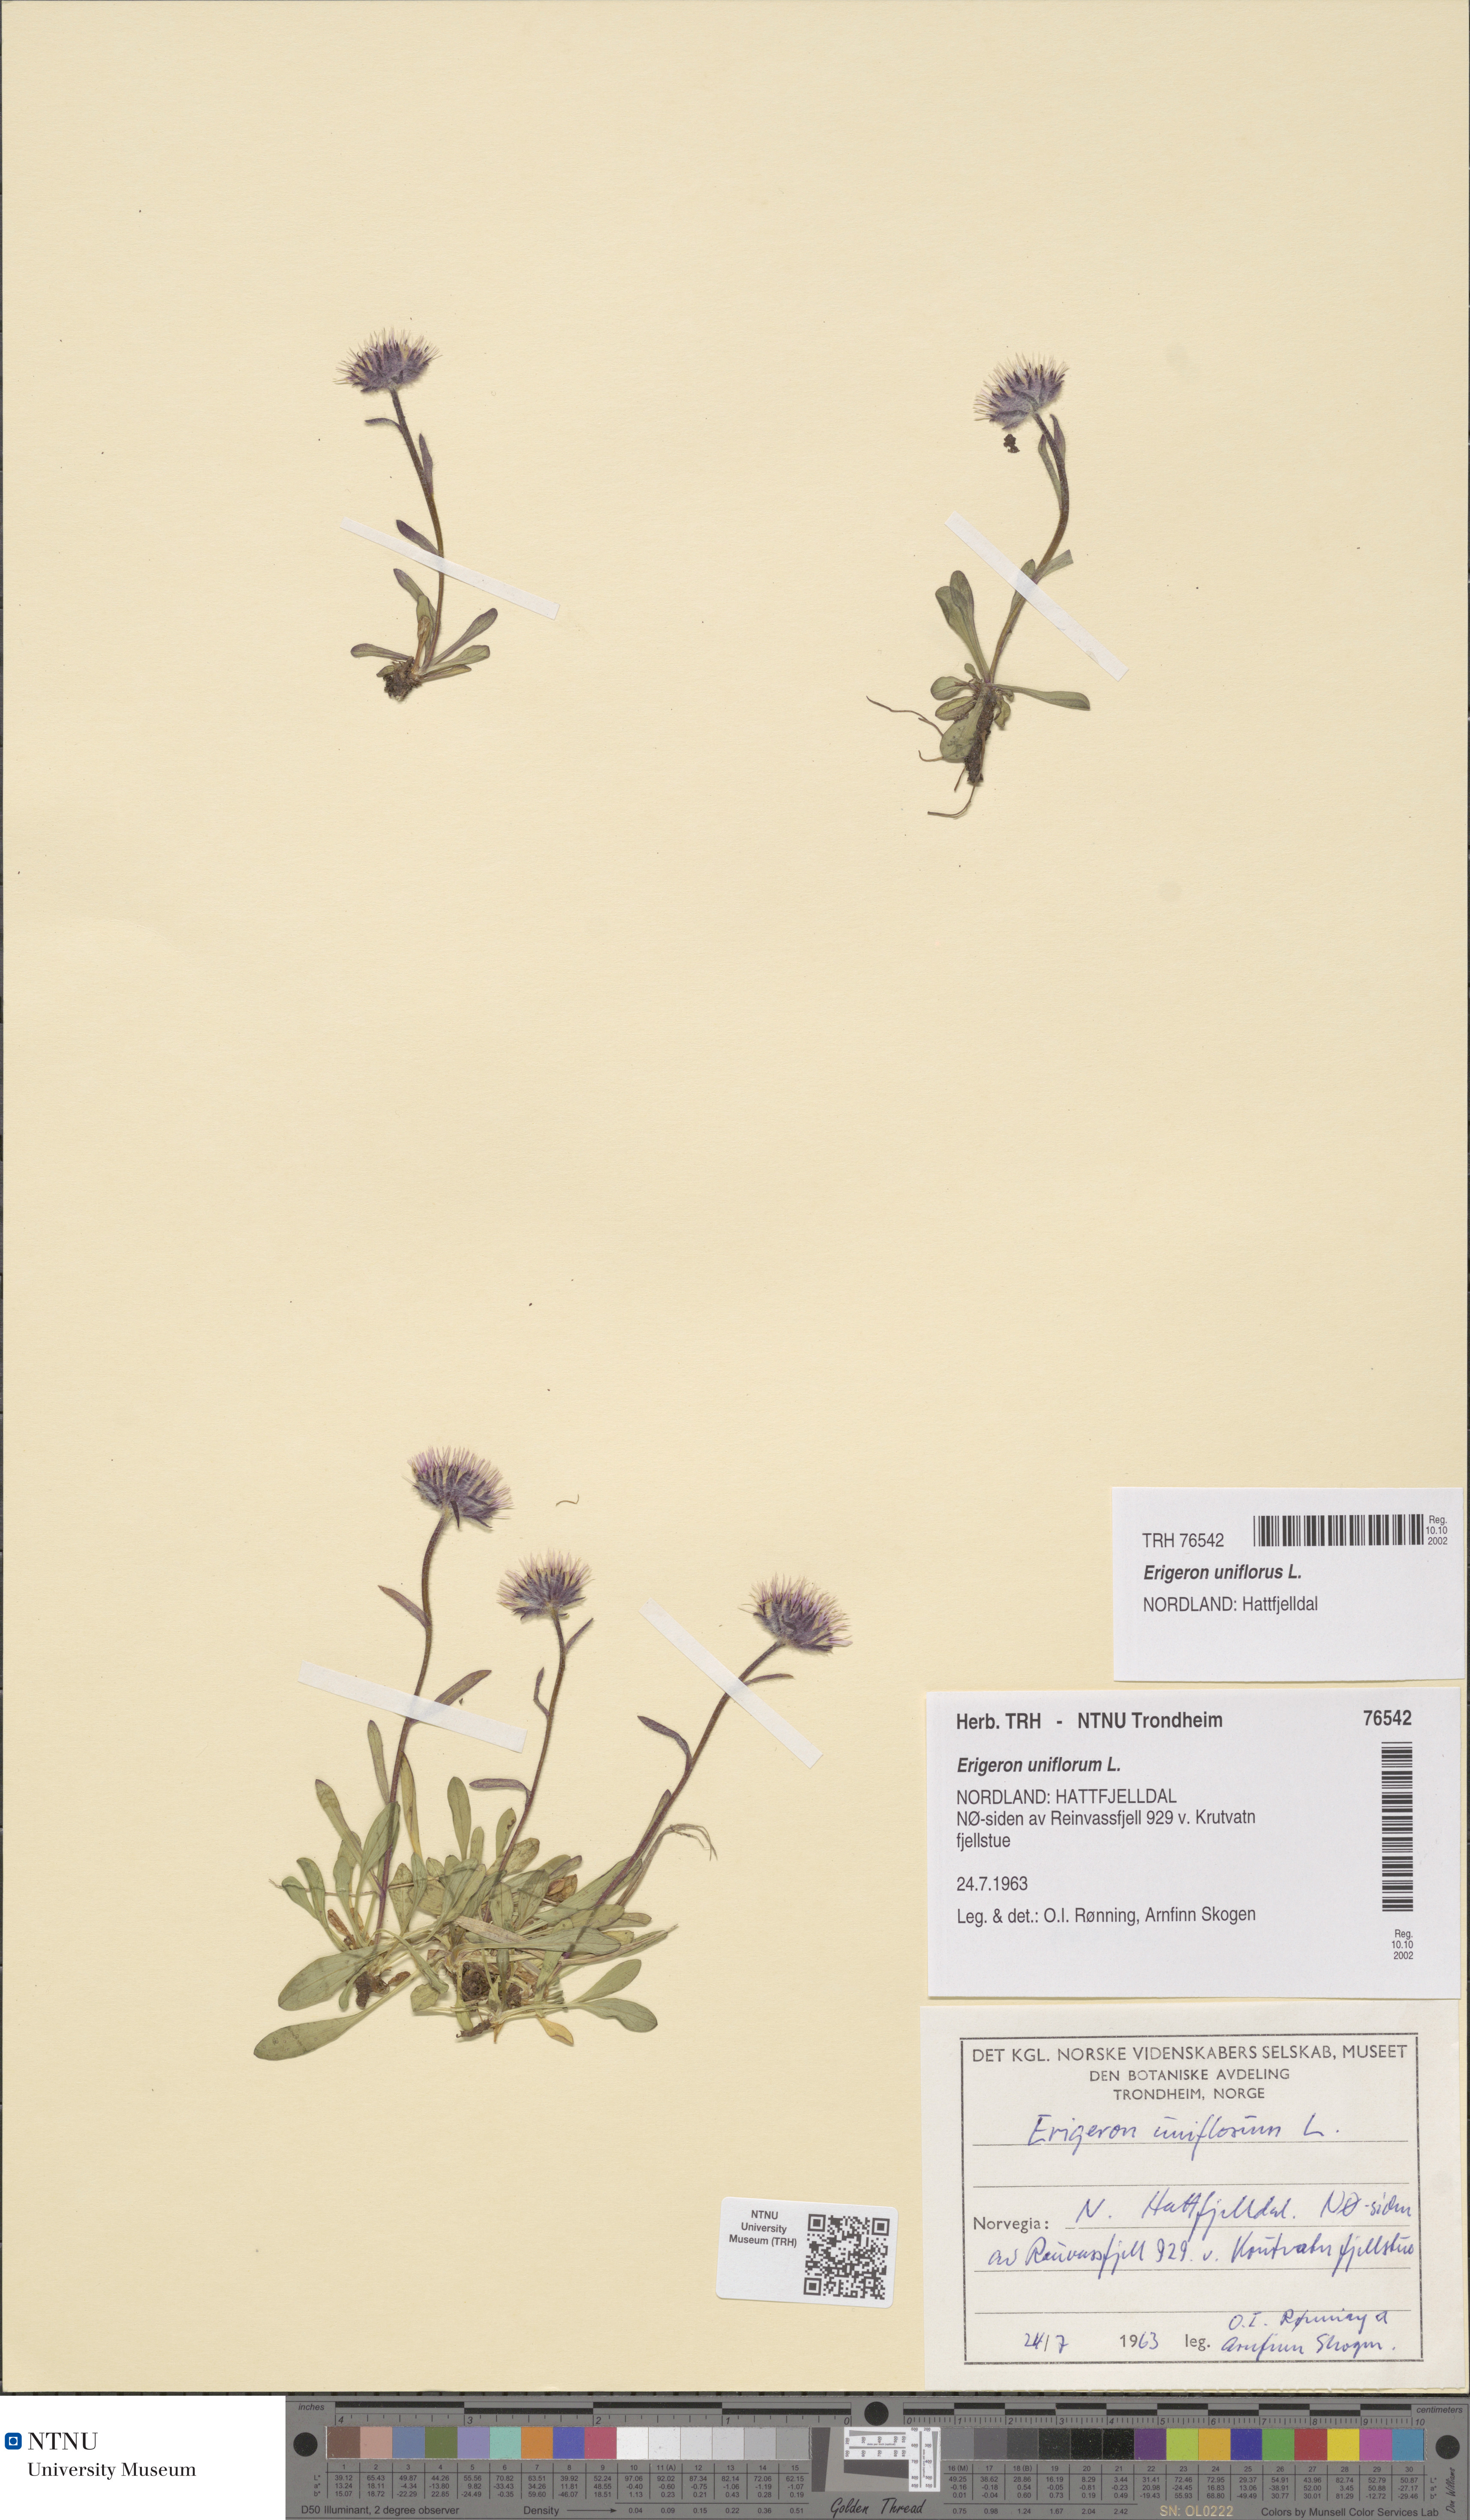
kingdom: Plantae
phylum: Tracheophyta
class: Magnoliopsida
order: Asterales
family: Asteraceae
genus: Erigeron
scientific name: Erigeron uniflorus
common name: Northern daisy
